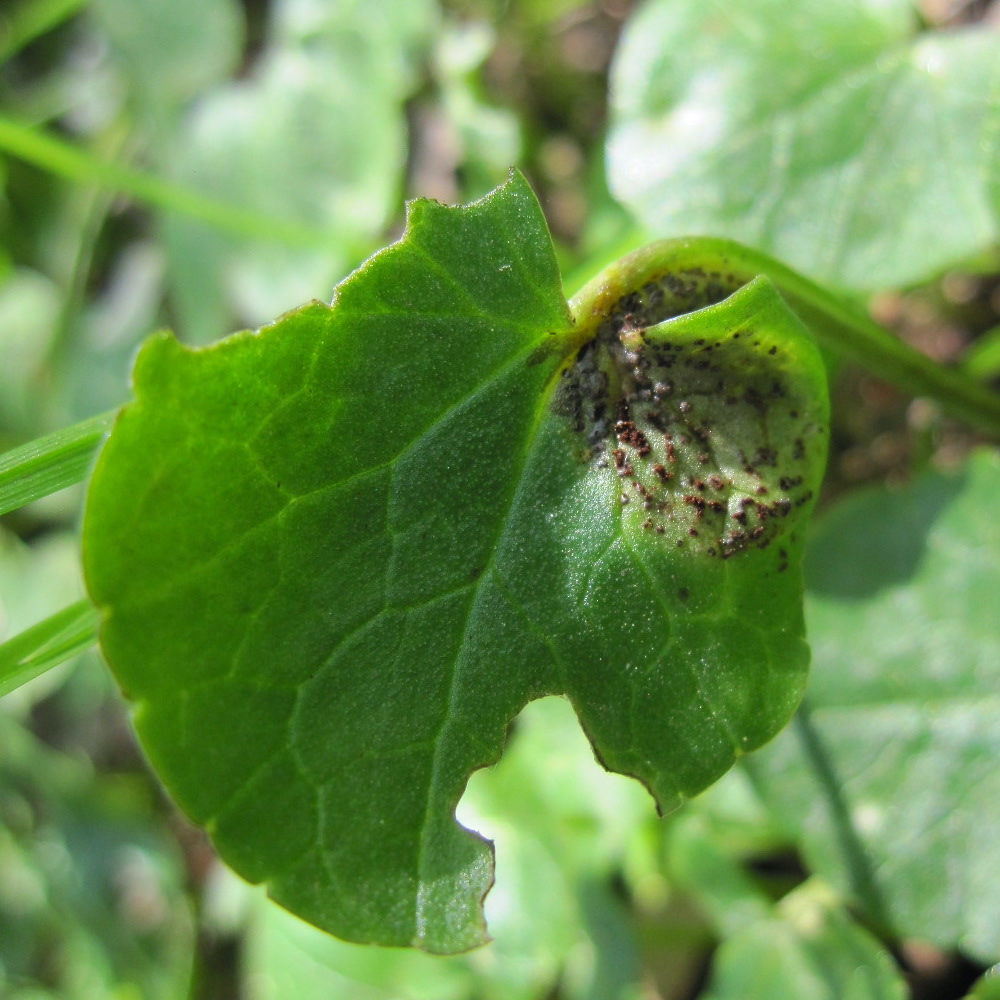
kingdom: Fungi
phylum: Basidiomycota
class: Pucciniomycetes
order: Pucciniales
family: Pucciniaceae
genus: Uromyces
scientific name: Uromyces ficariae
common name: vorterod-encellerust
